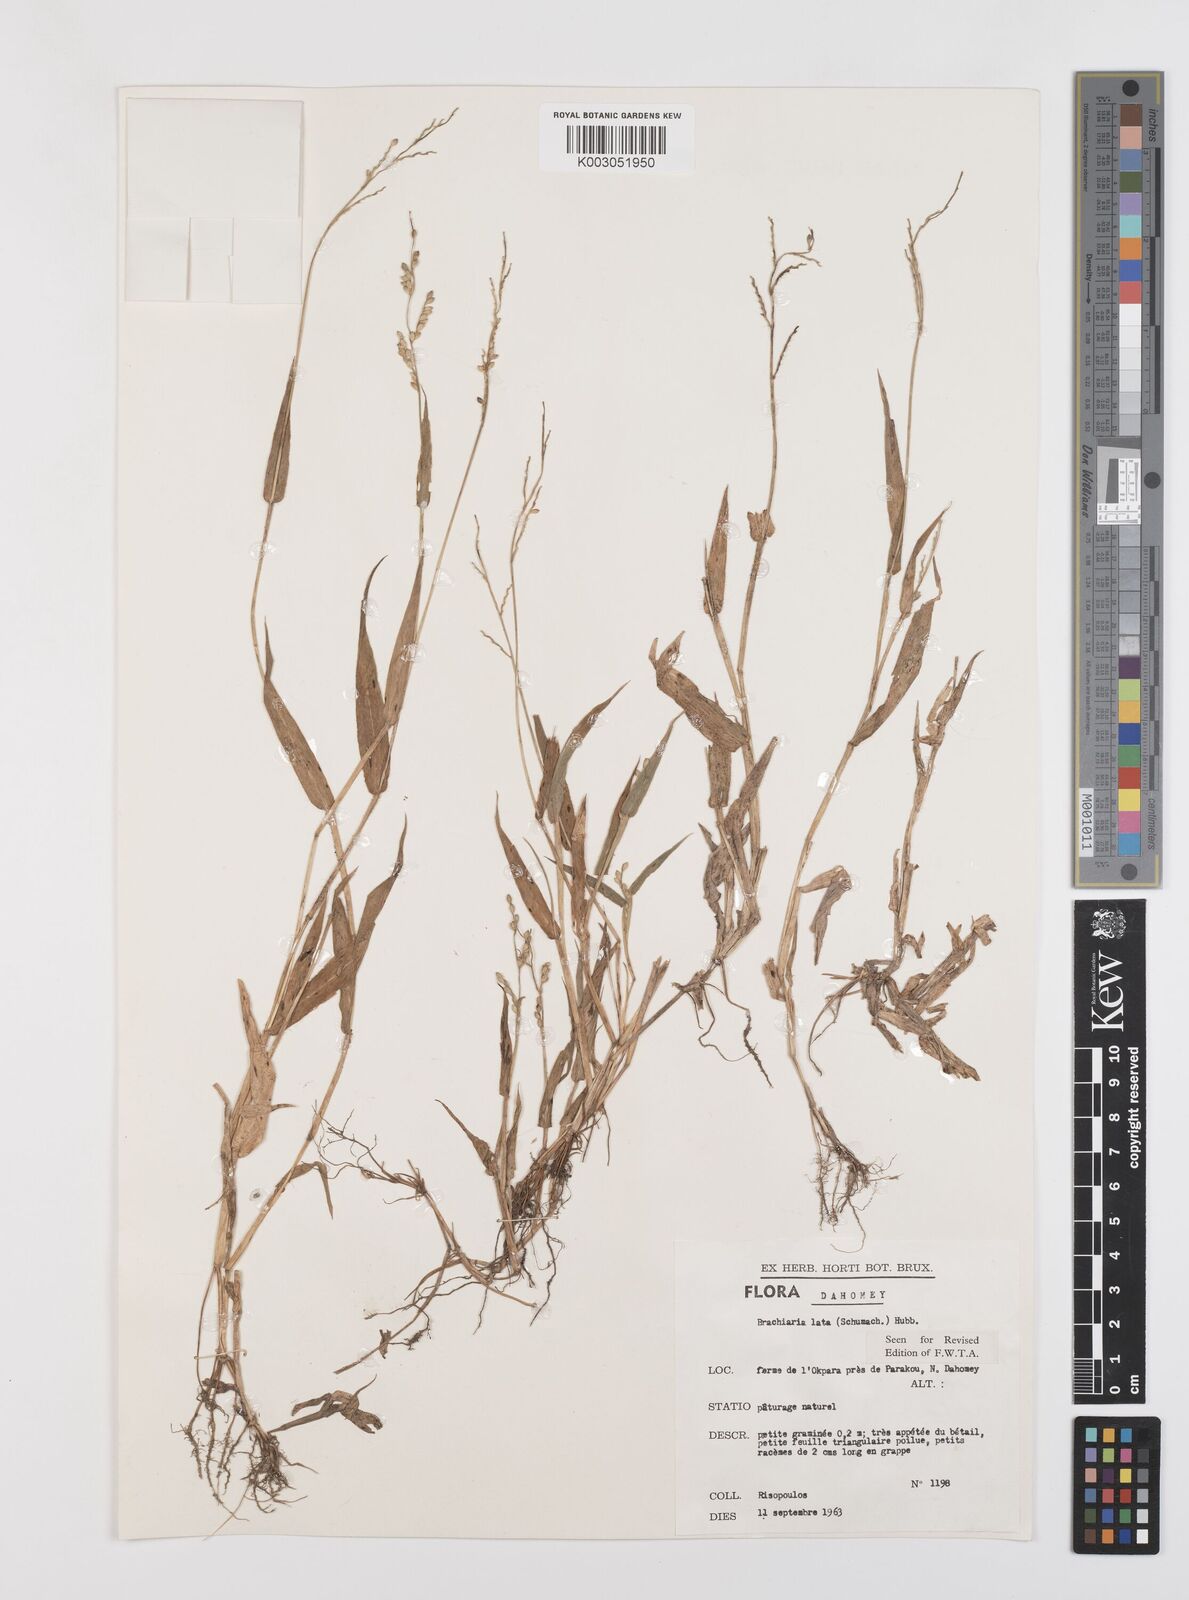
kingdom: Plantae
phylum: Tracheophyta
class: Liliopsida
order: Poales
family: Poaceae
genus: Urochloa
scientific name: Urochloa lata
